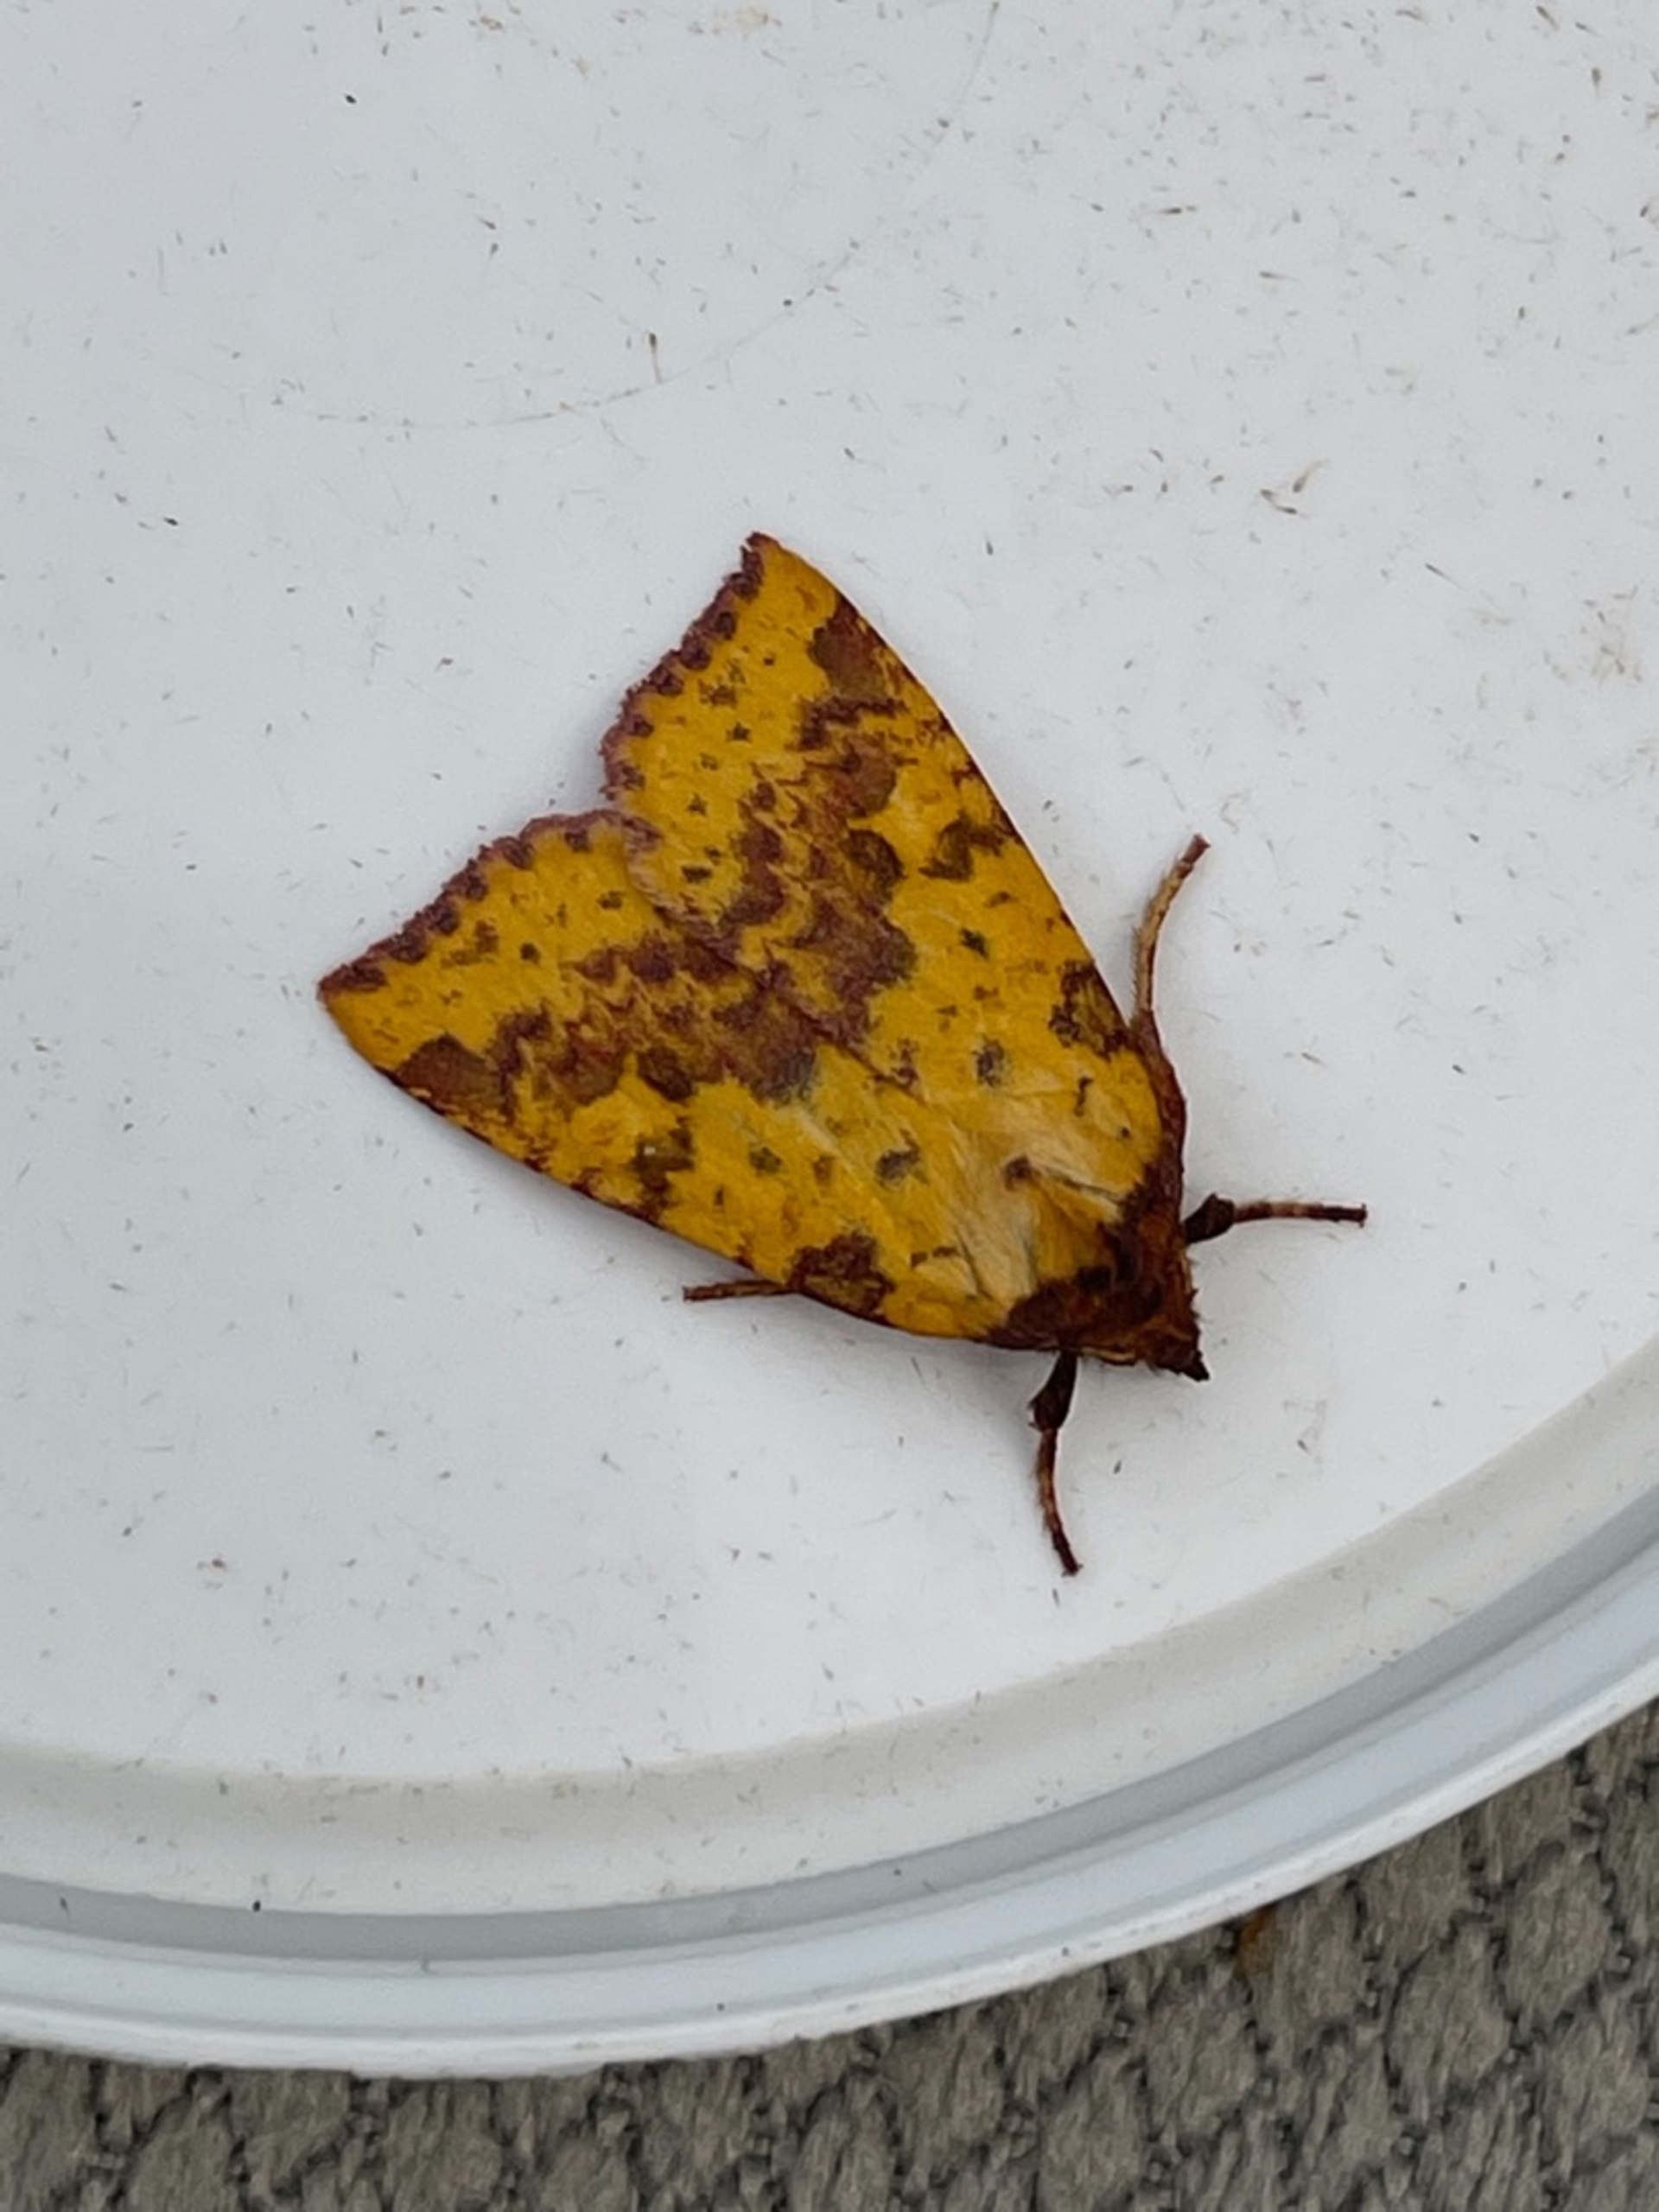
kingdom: Animalia
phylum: Arthropoda
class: Insecta
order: Lepidoptera
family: Noctuidae
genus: Xanthia
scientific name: Xanthia togata
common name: Toga-septemberugle
